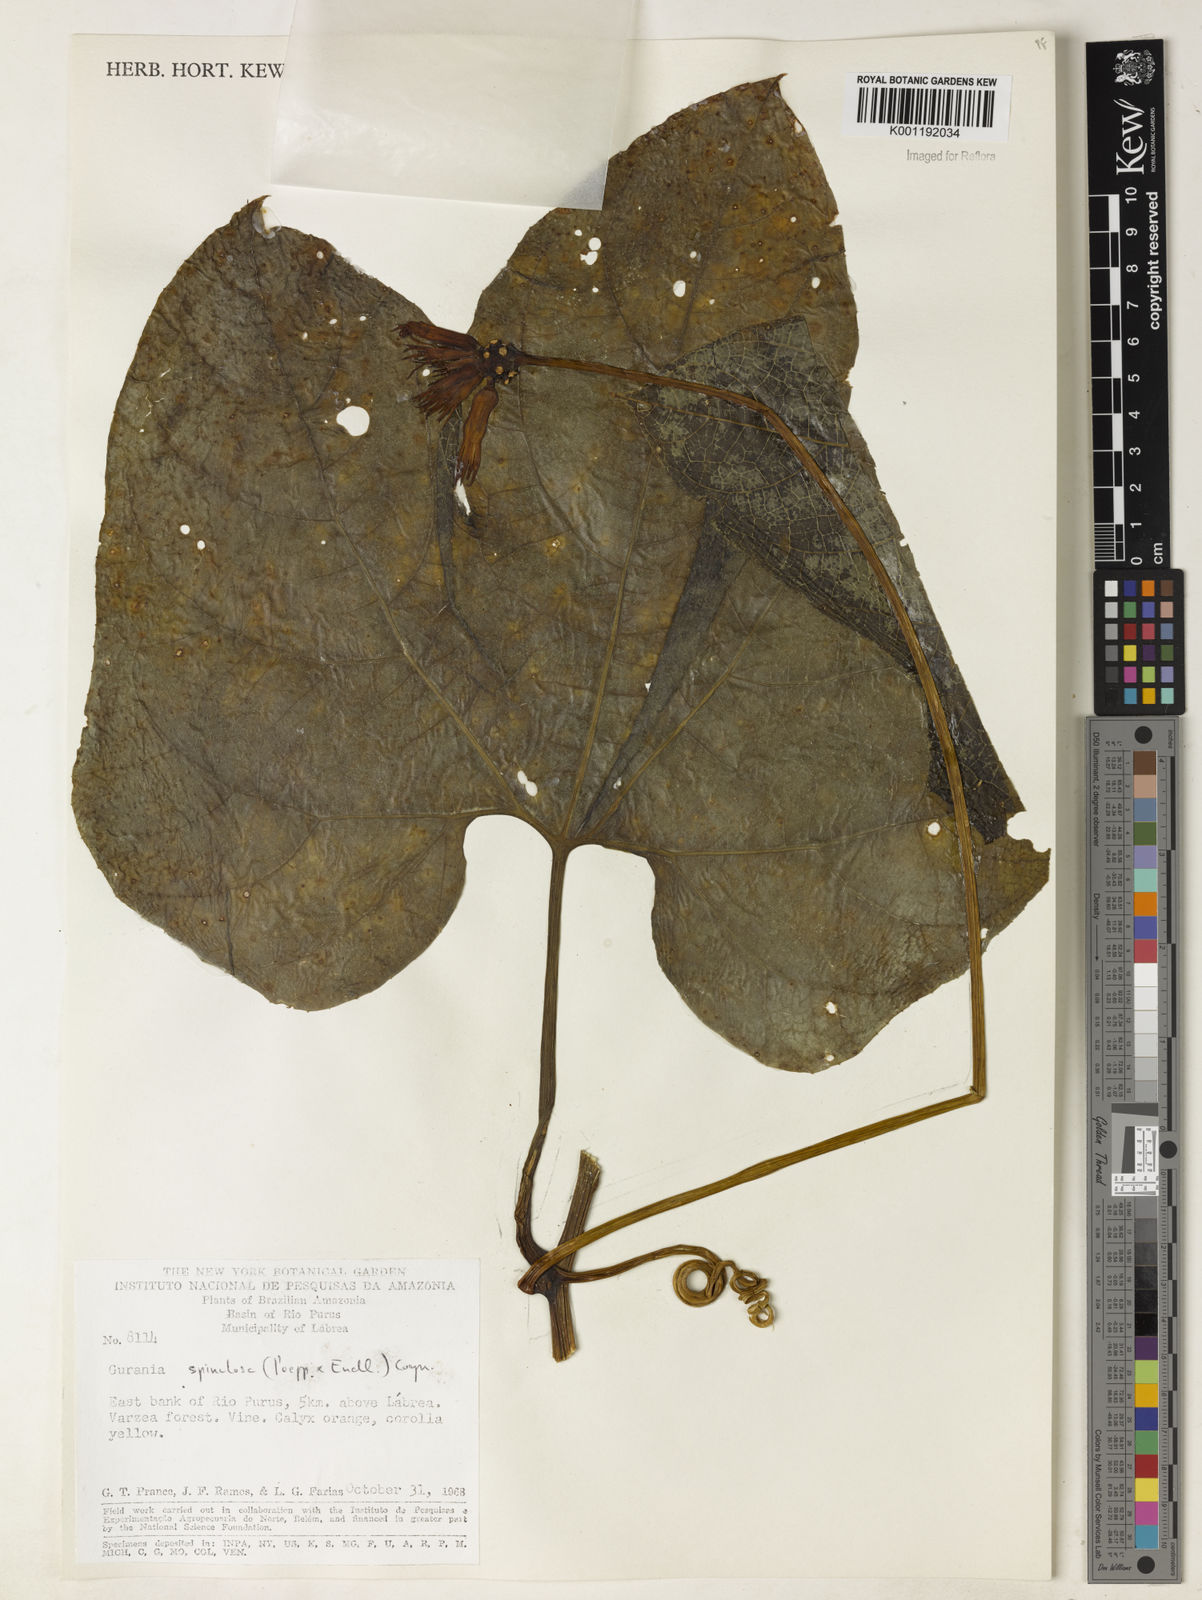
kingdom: Plantae
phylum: Tracheophyta
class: Magnoliopsida
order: Cucurbitales
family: Cucurbitaceae
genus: Gurania
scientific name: Gurania lobata
